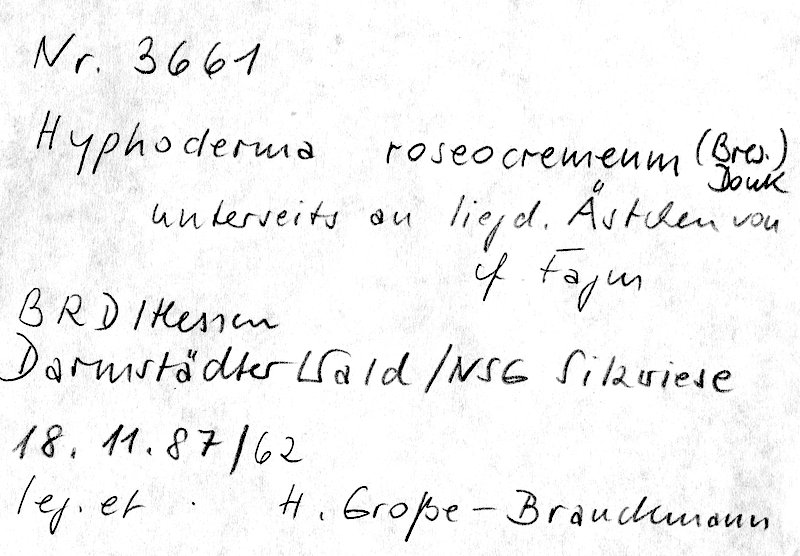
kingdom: Plantae
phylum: Tracheophyta
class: Magnoliopsida
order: Fagales
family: Fagaceae
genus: Fagus
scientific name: Fagus sylvatica
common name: Beech
